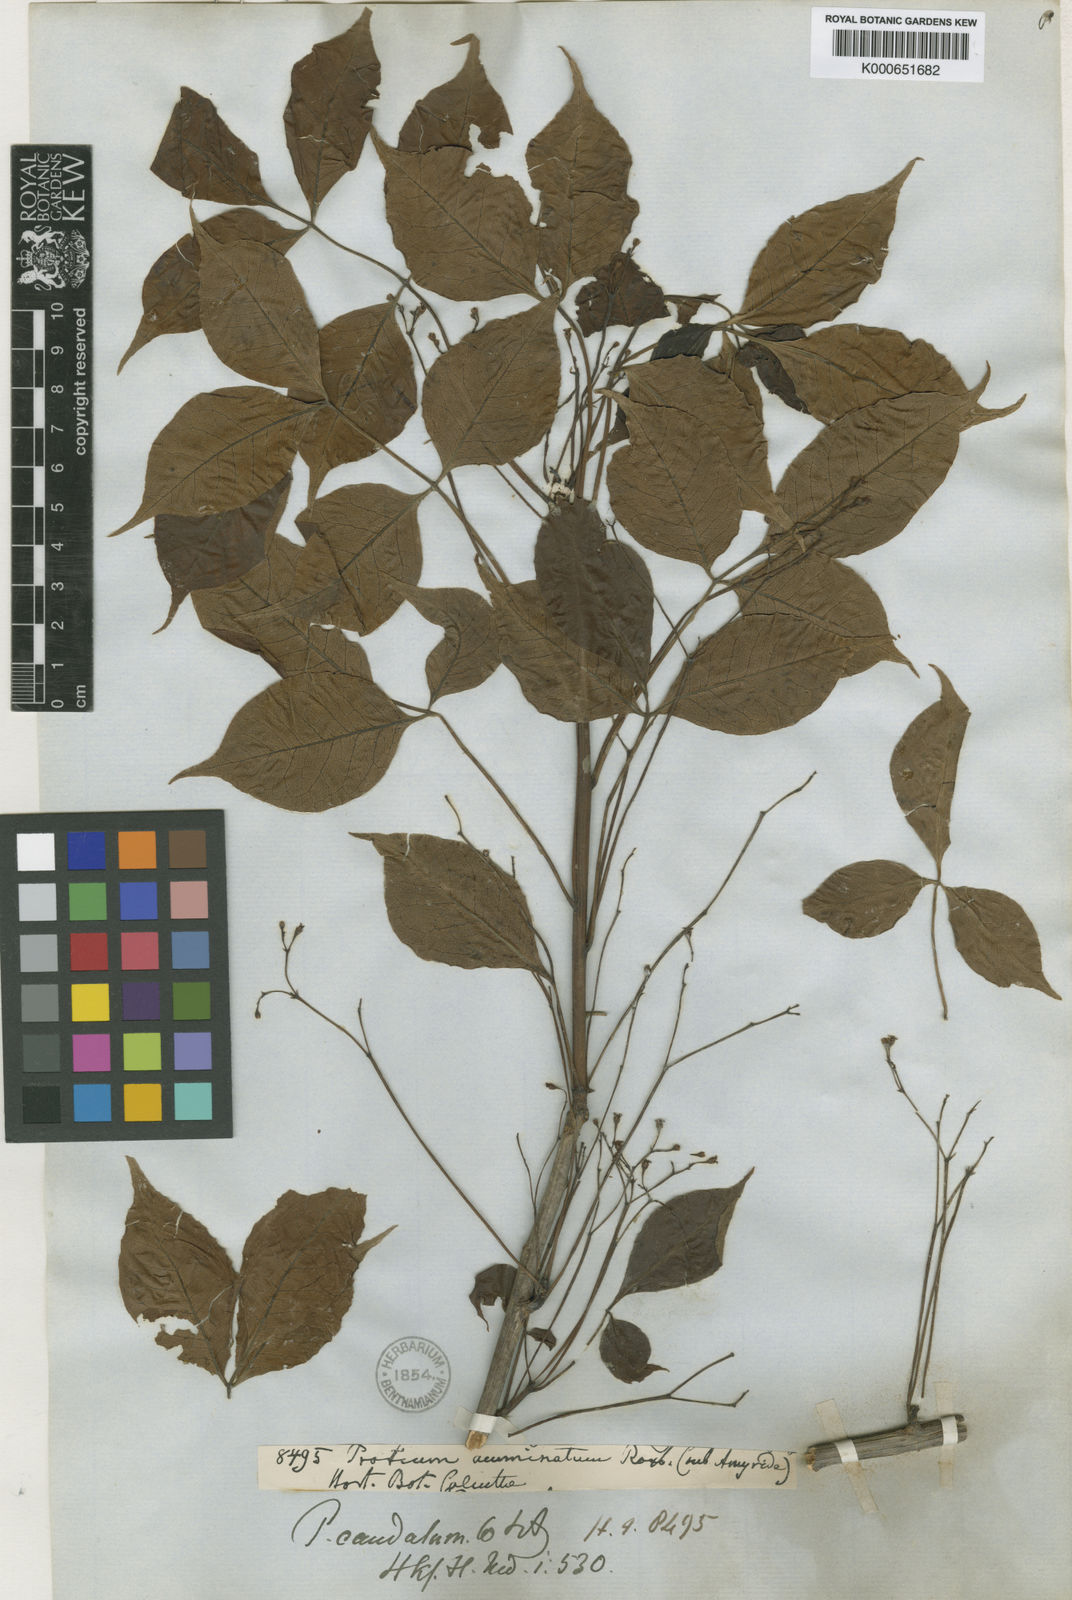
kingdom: Plantae
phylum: Tracheophyta
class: Magnoliopsida
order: Sapindales
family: Burseraceae
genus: Commiphora
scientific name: Commiphora caudata
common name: Hill-mango
